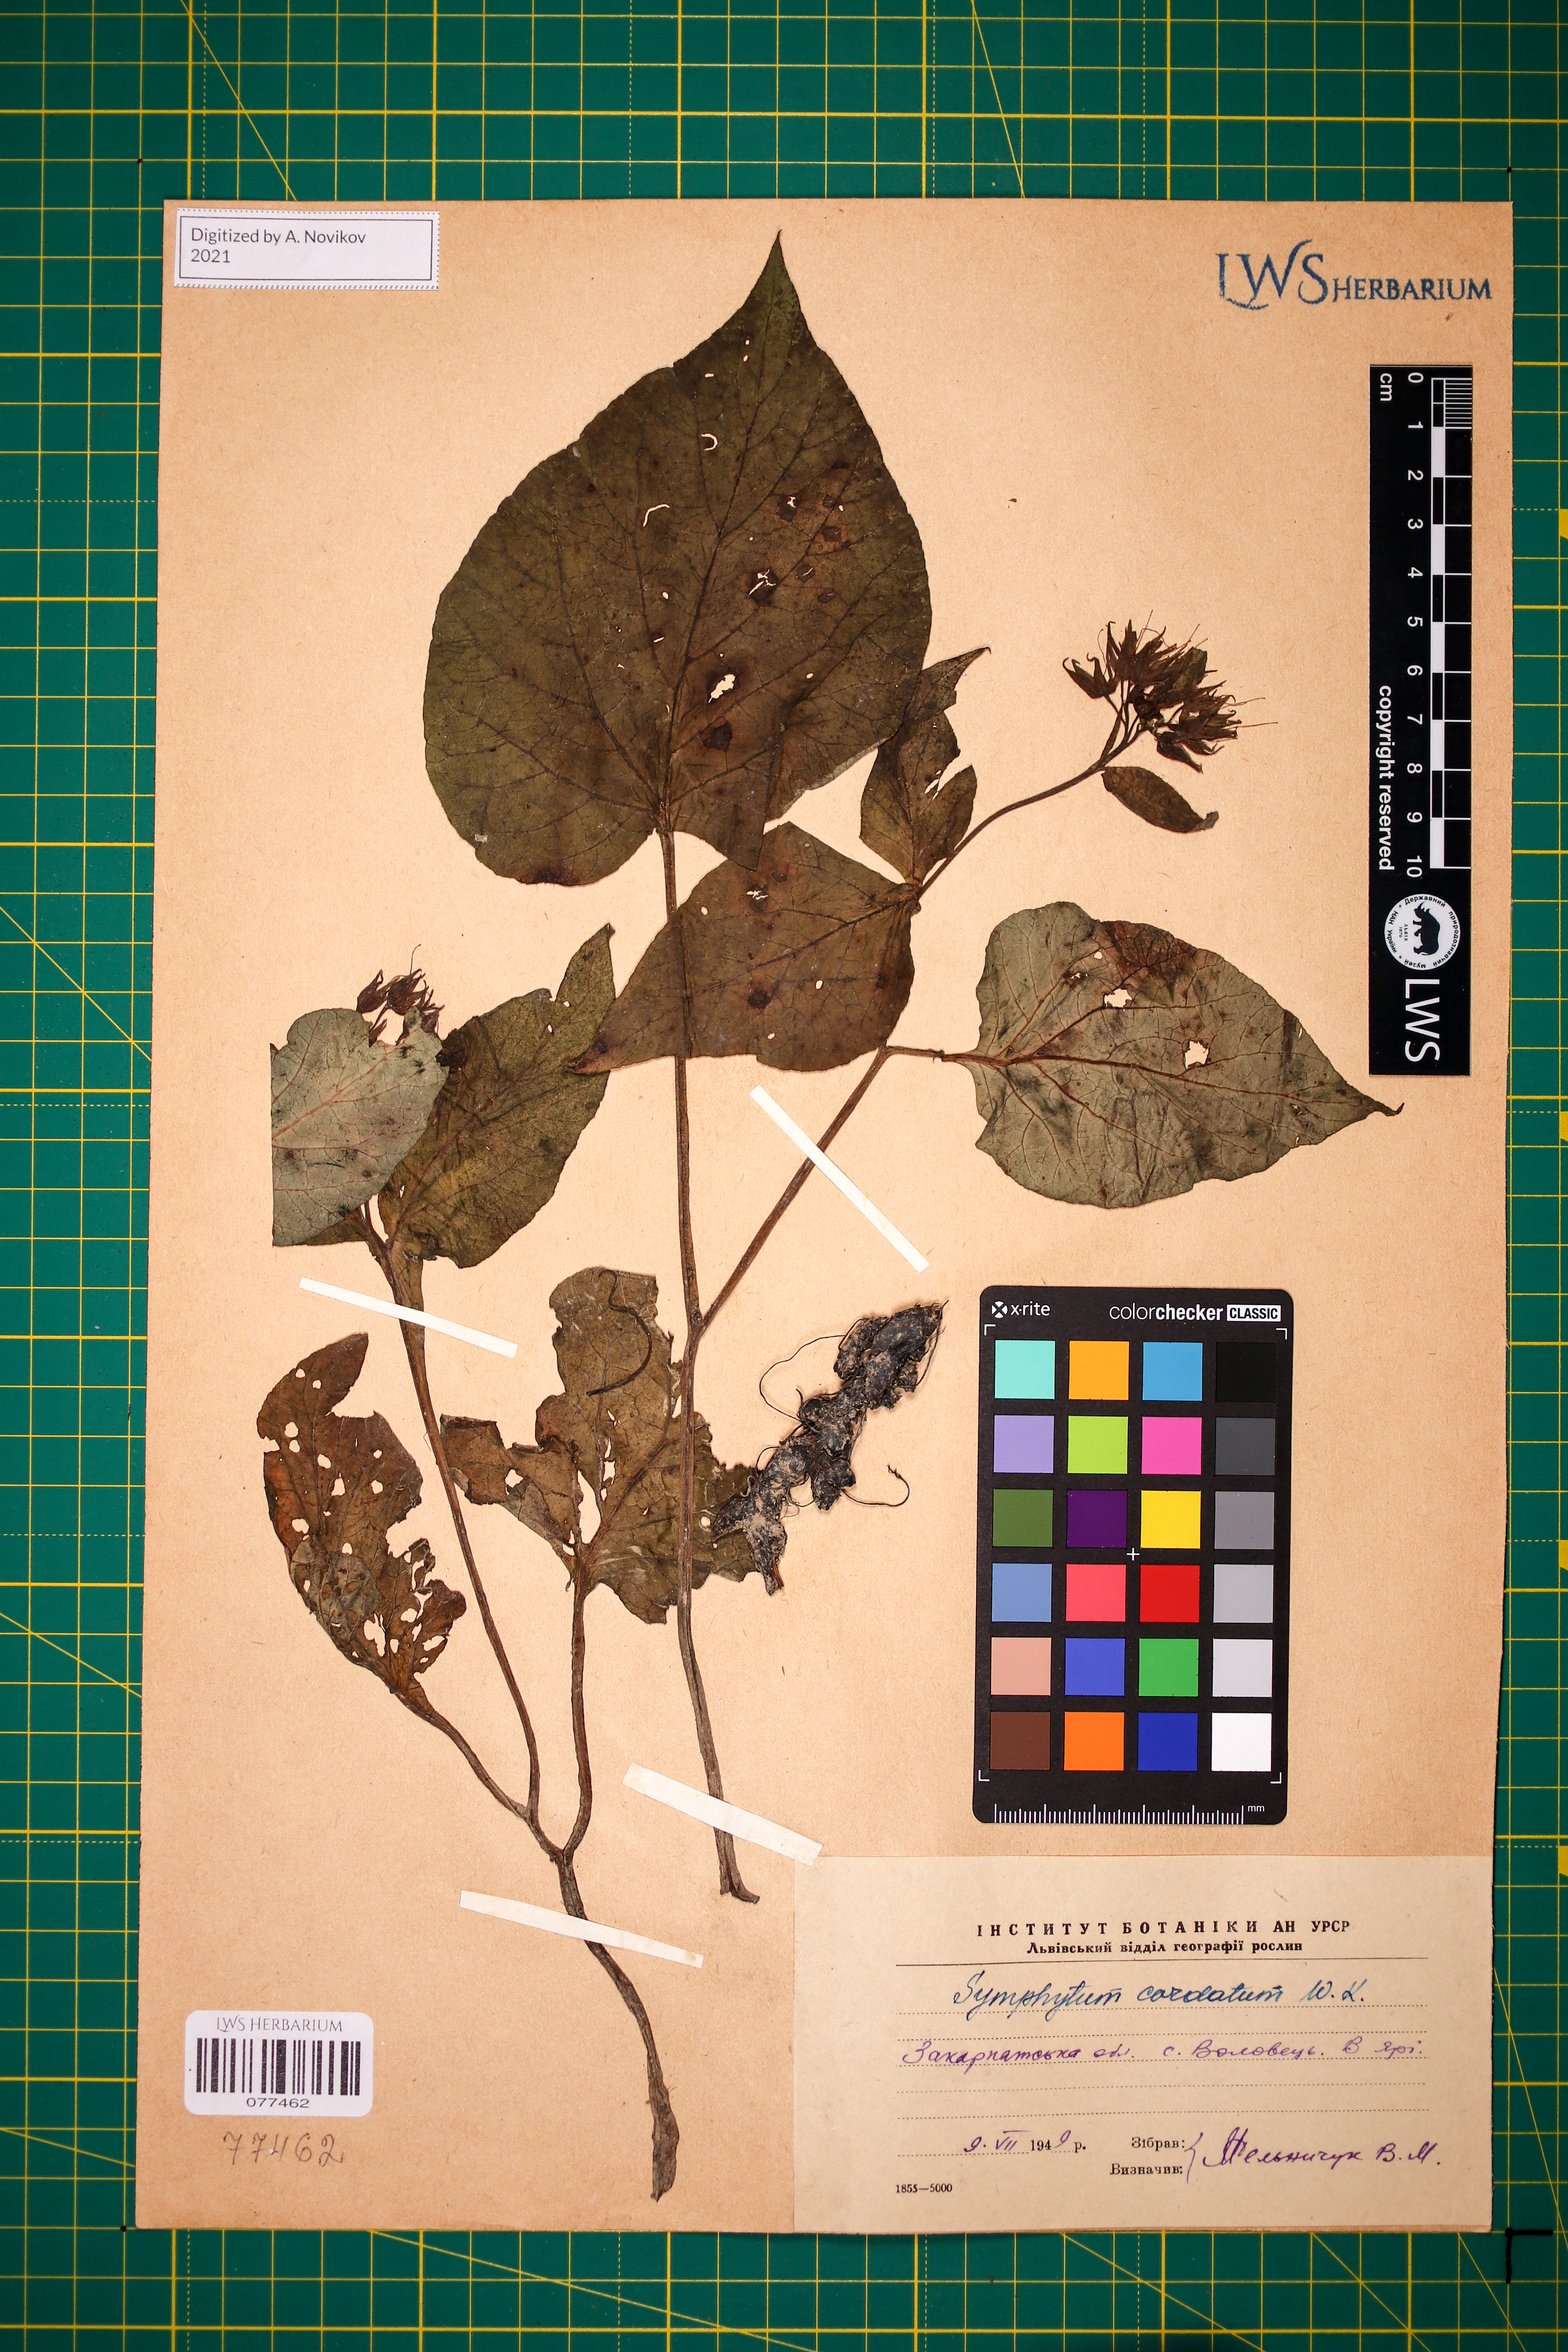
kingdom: Plantae
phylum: Tracheophyta
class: Magnoliopsida
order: Boraginales
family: Boraginaceae
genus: Symphytum
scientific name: Symphytum cordatum
